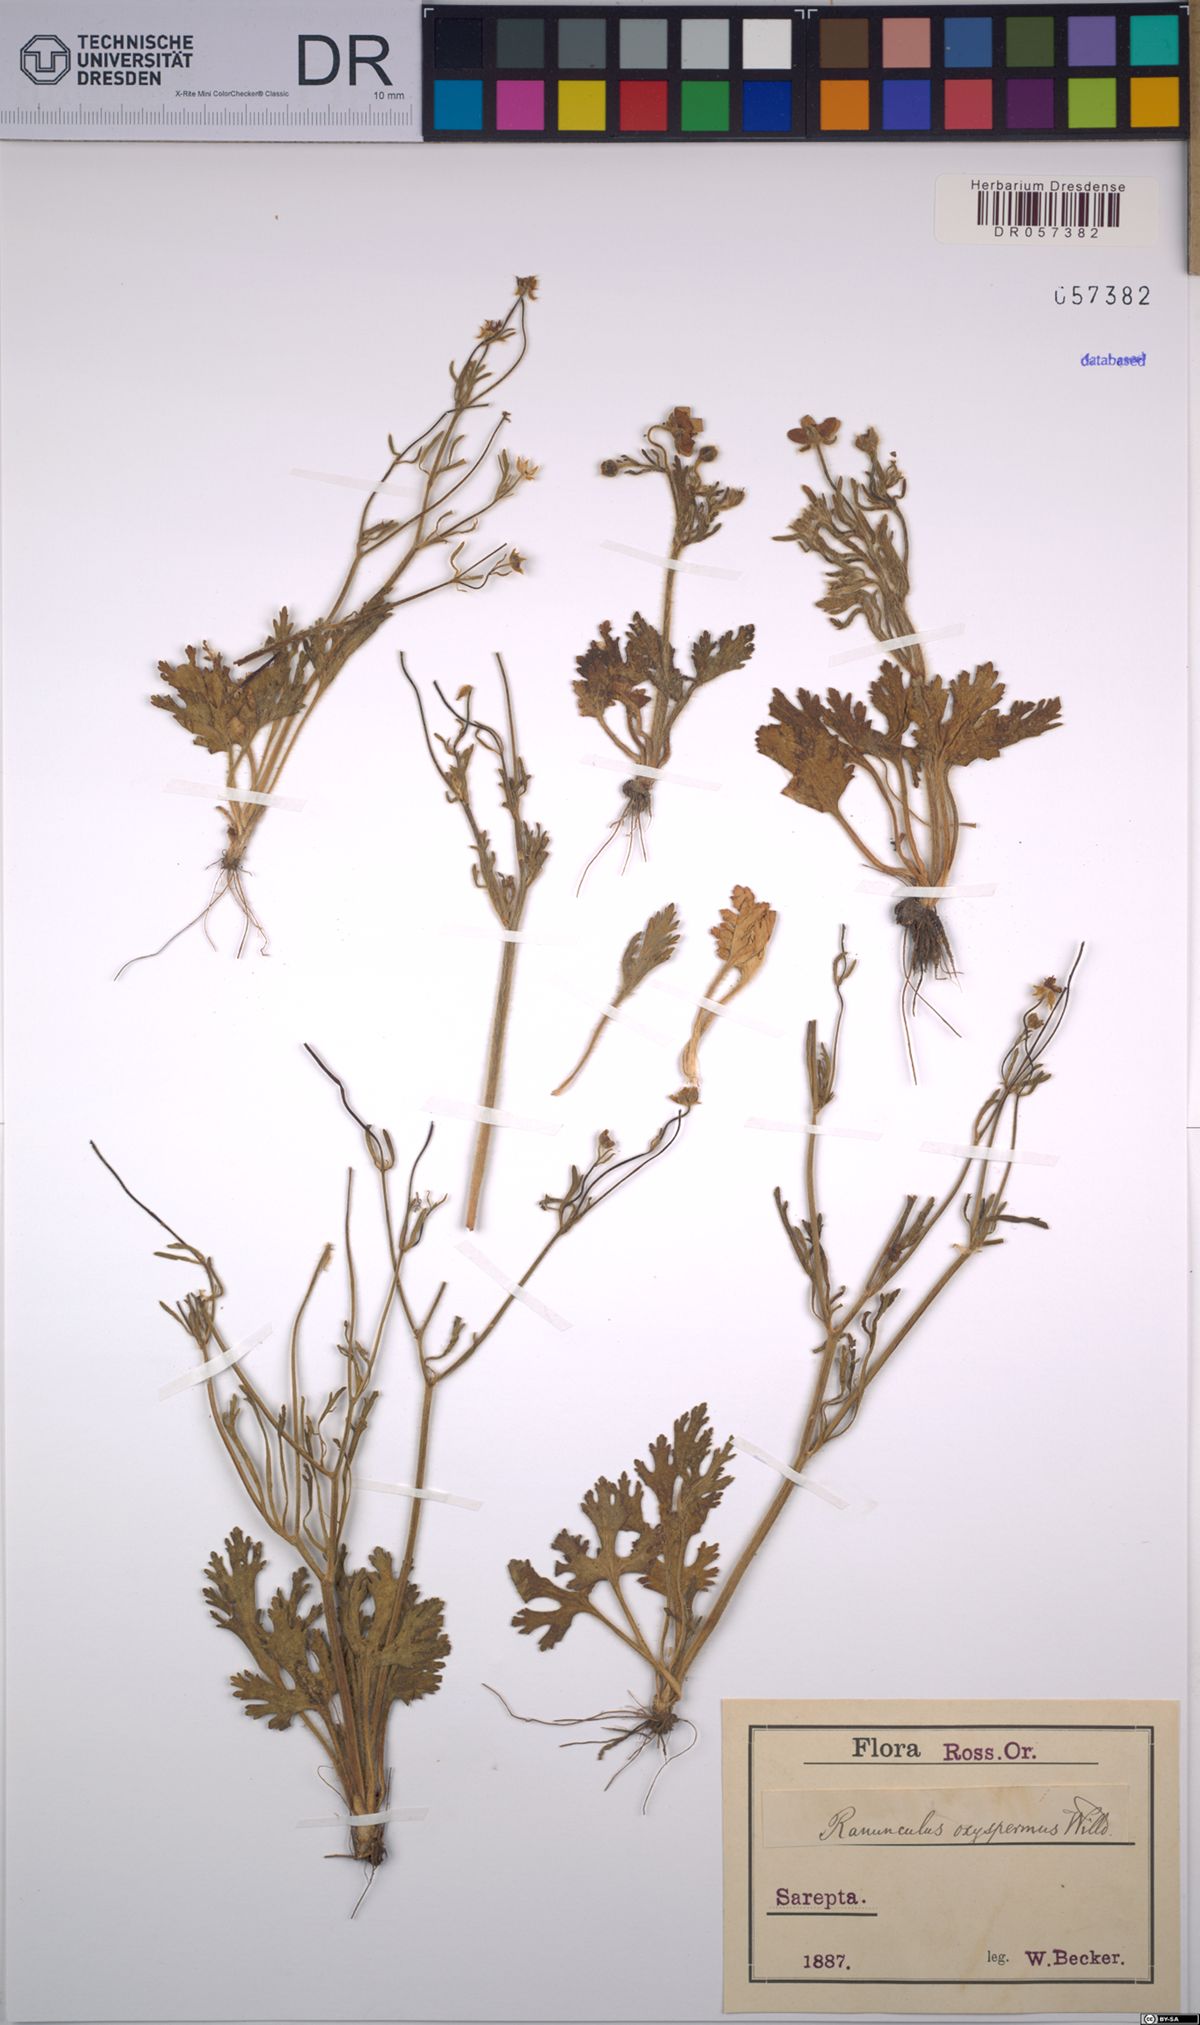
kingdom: Plantae
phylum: Tracheophyta
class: Magnoliopsida
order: Ranunculales
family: Ranunculaceae
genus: Ranunculus
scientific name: Ranunculus oxyspermus
